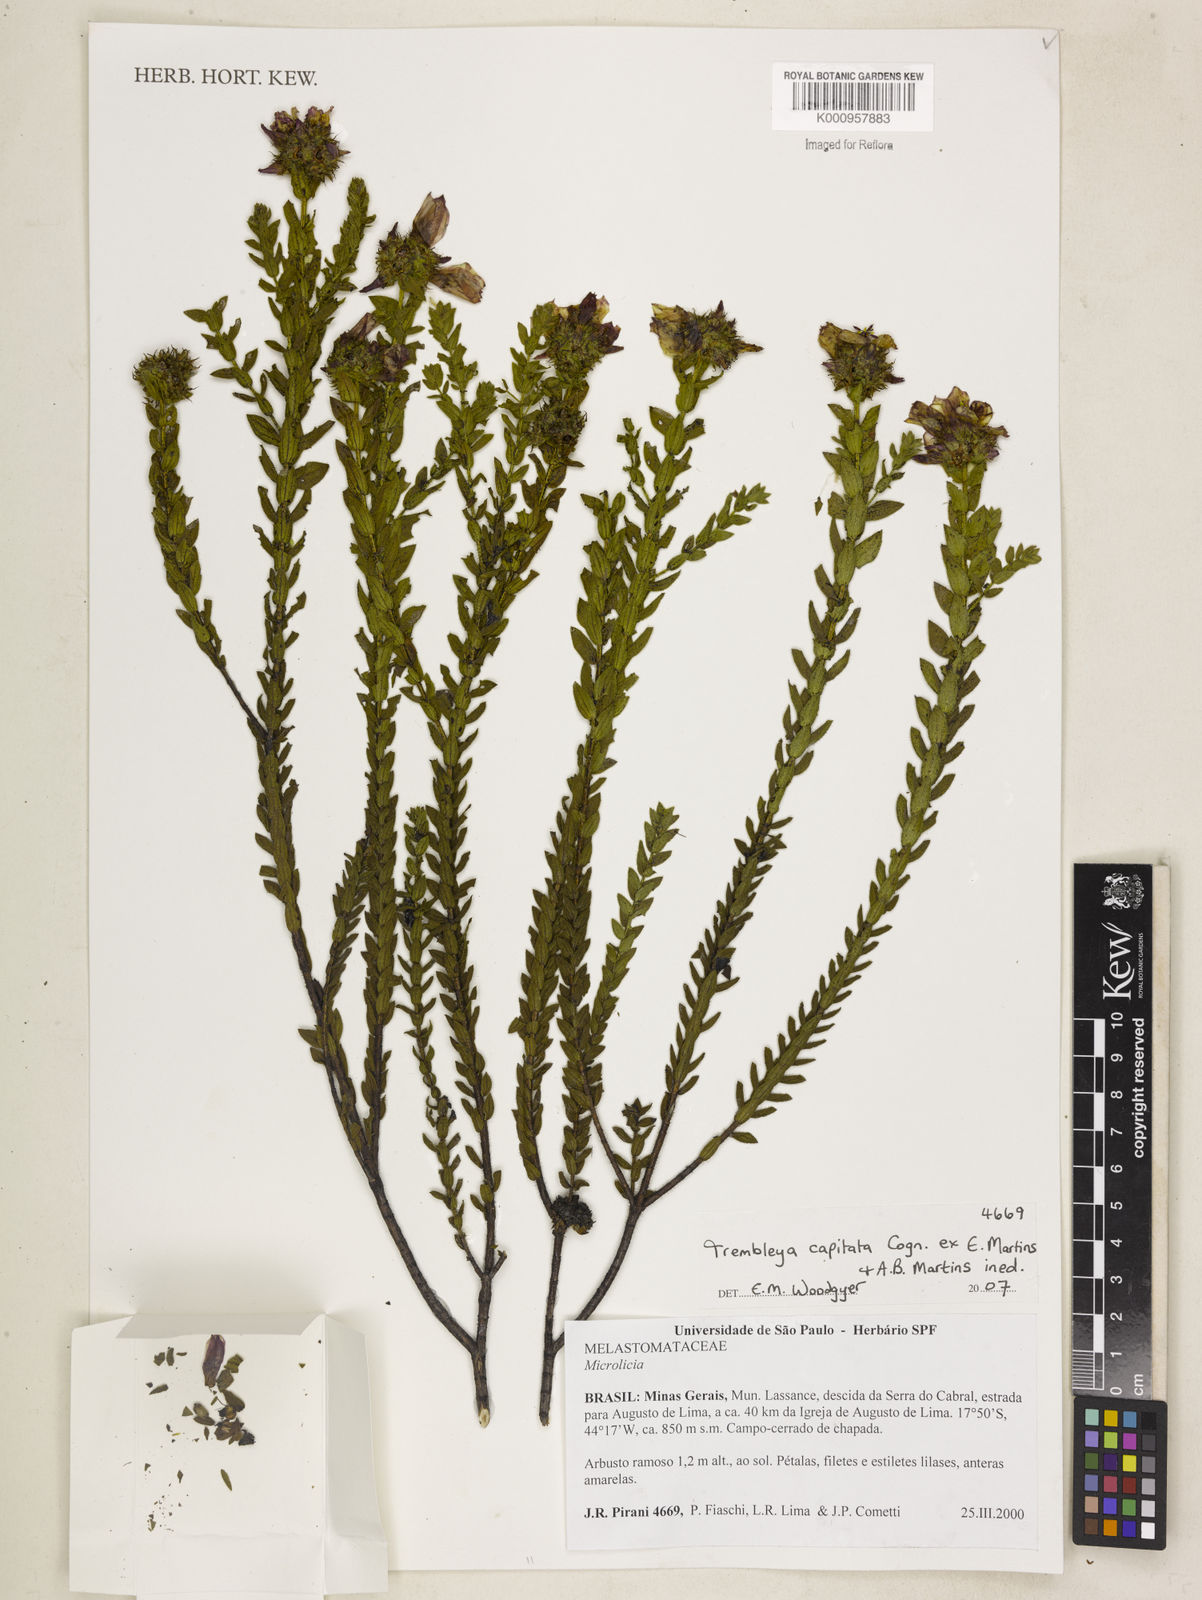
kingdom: Plantae
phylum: Tracheophyta
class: Magnoliopsida
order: Myrtales
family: Melastomataceae
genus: Microlicia
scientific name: Microlicia Trembleya capitata
